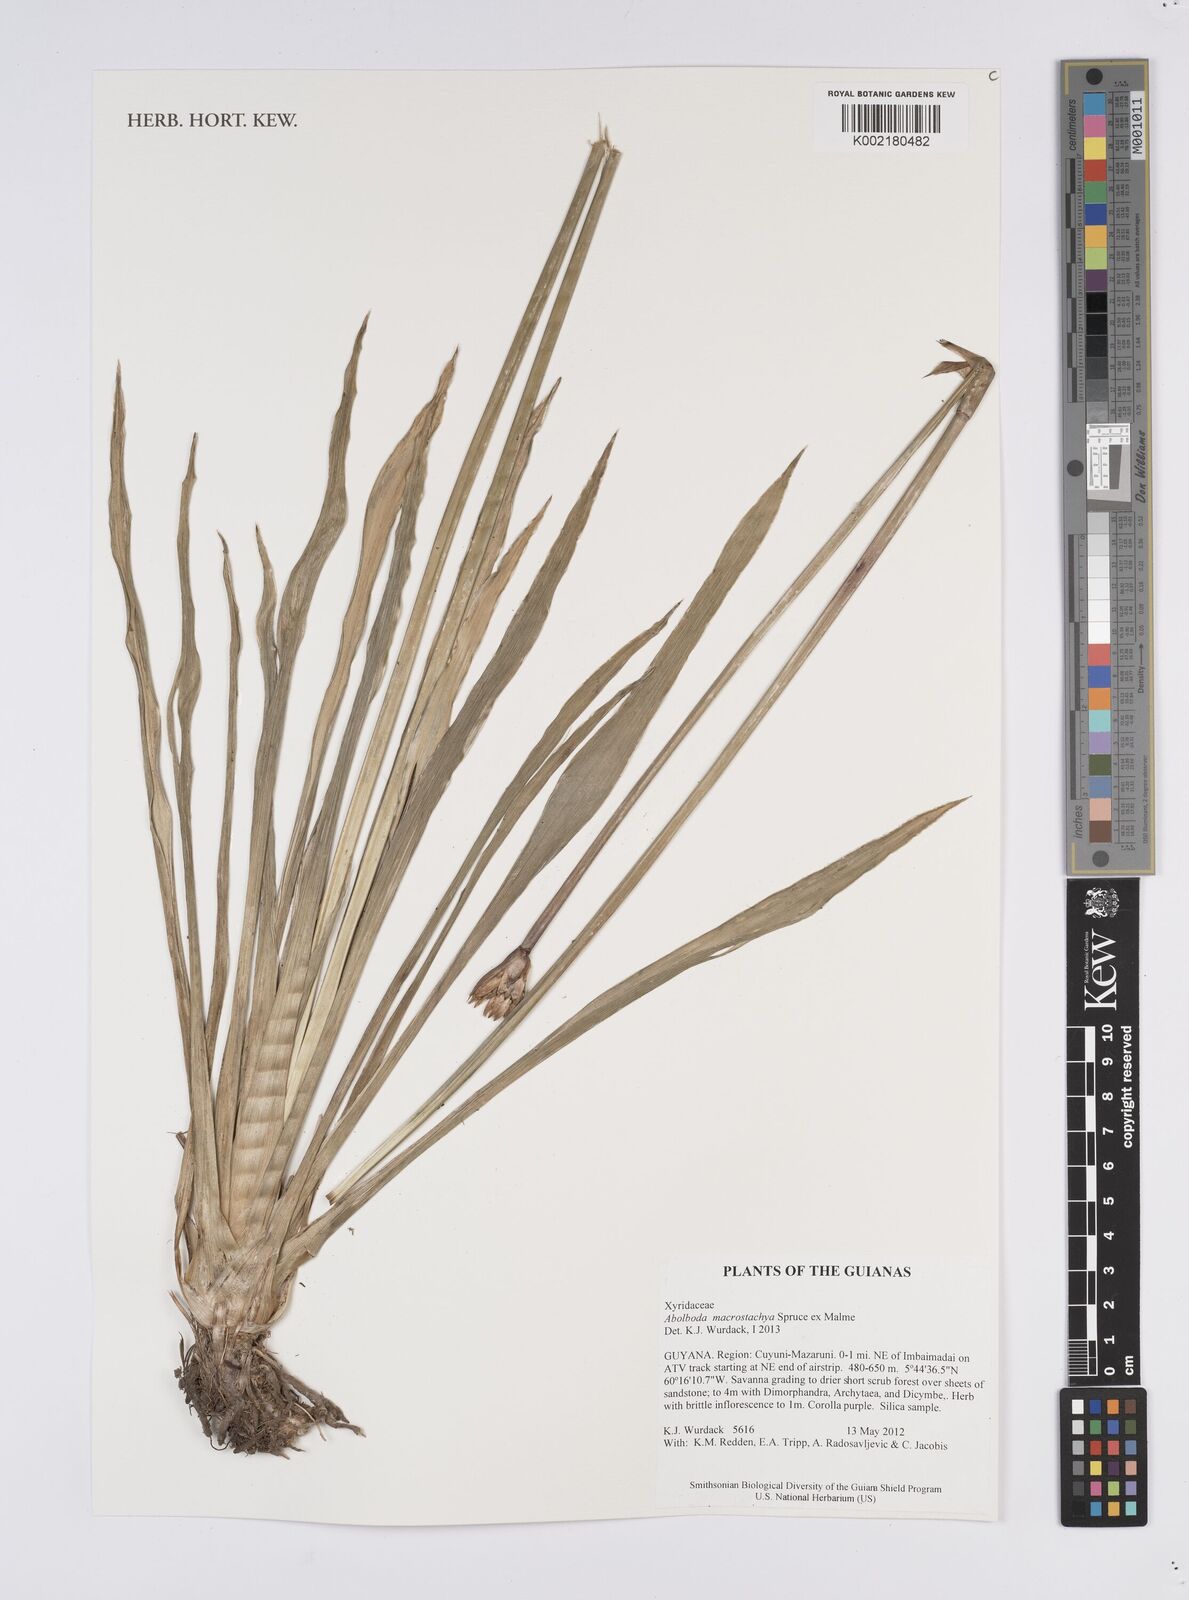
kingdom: Plantae
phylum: Tracheophyta
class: Liliopsida
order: Poales
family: Xyridaceae
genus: Abolboda
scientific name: Abolboda macrostachya
